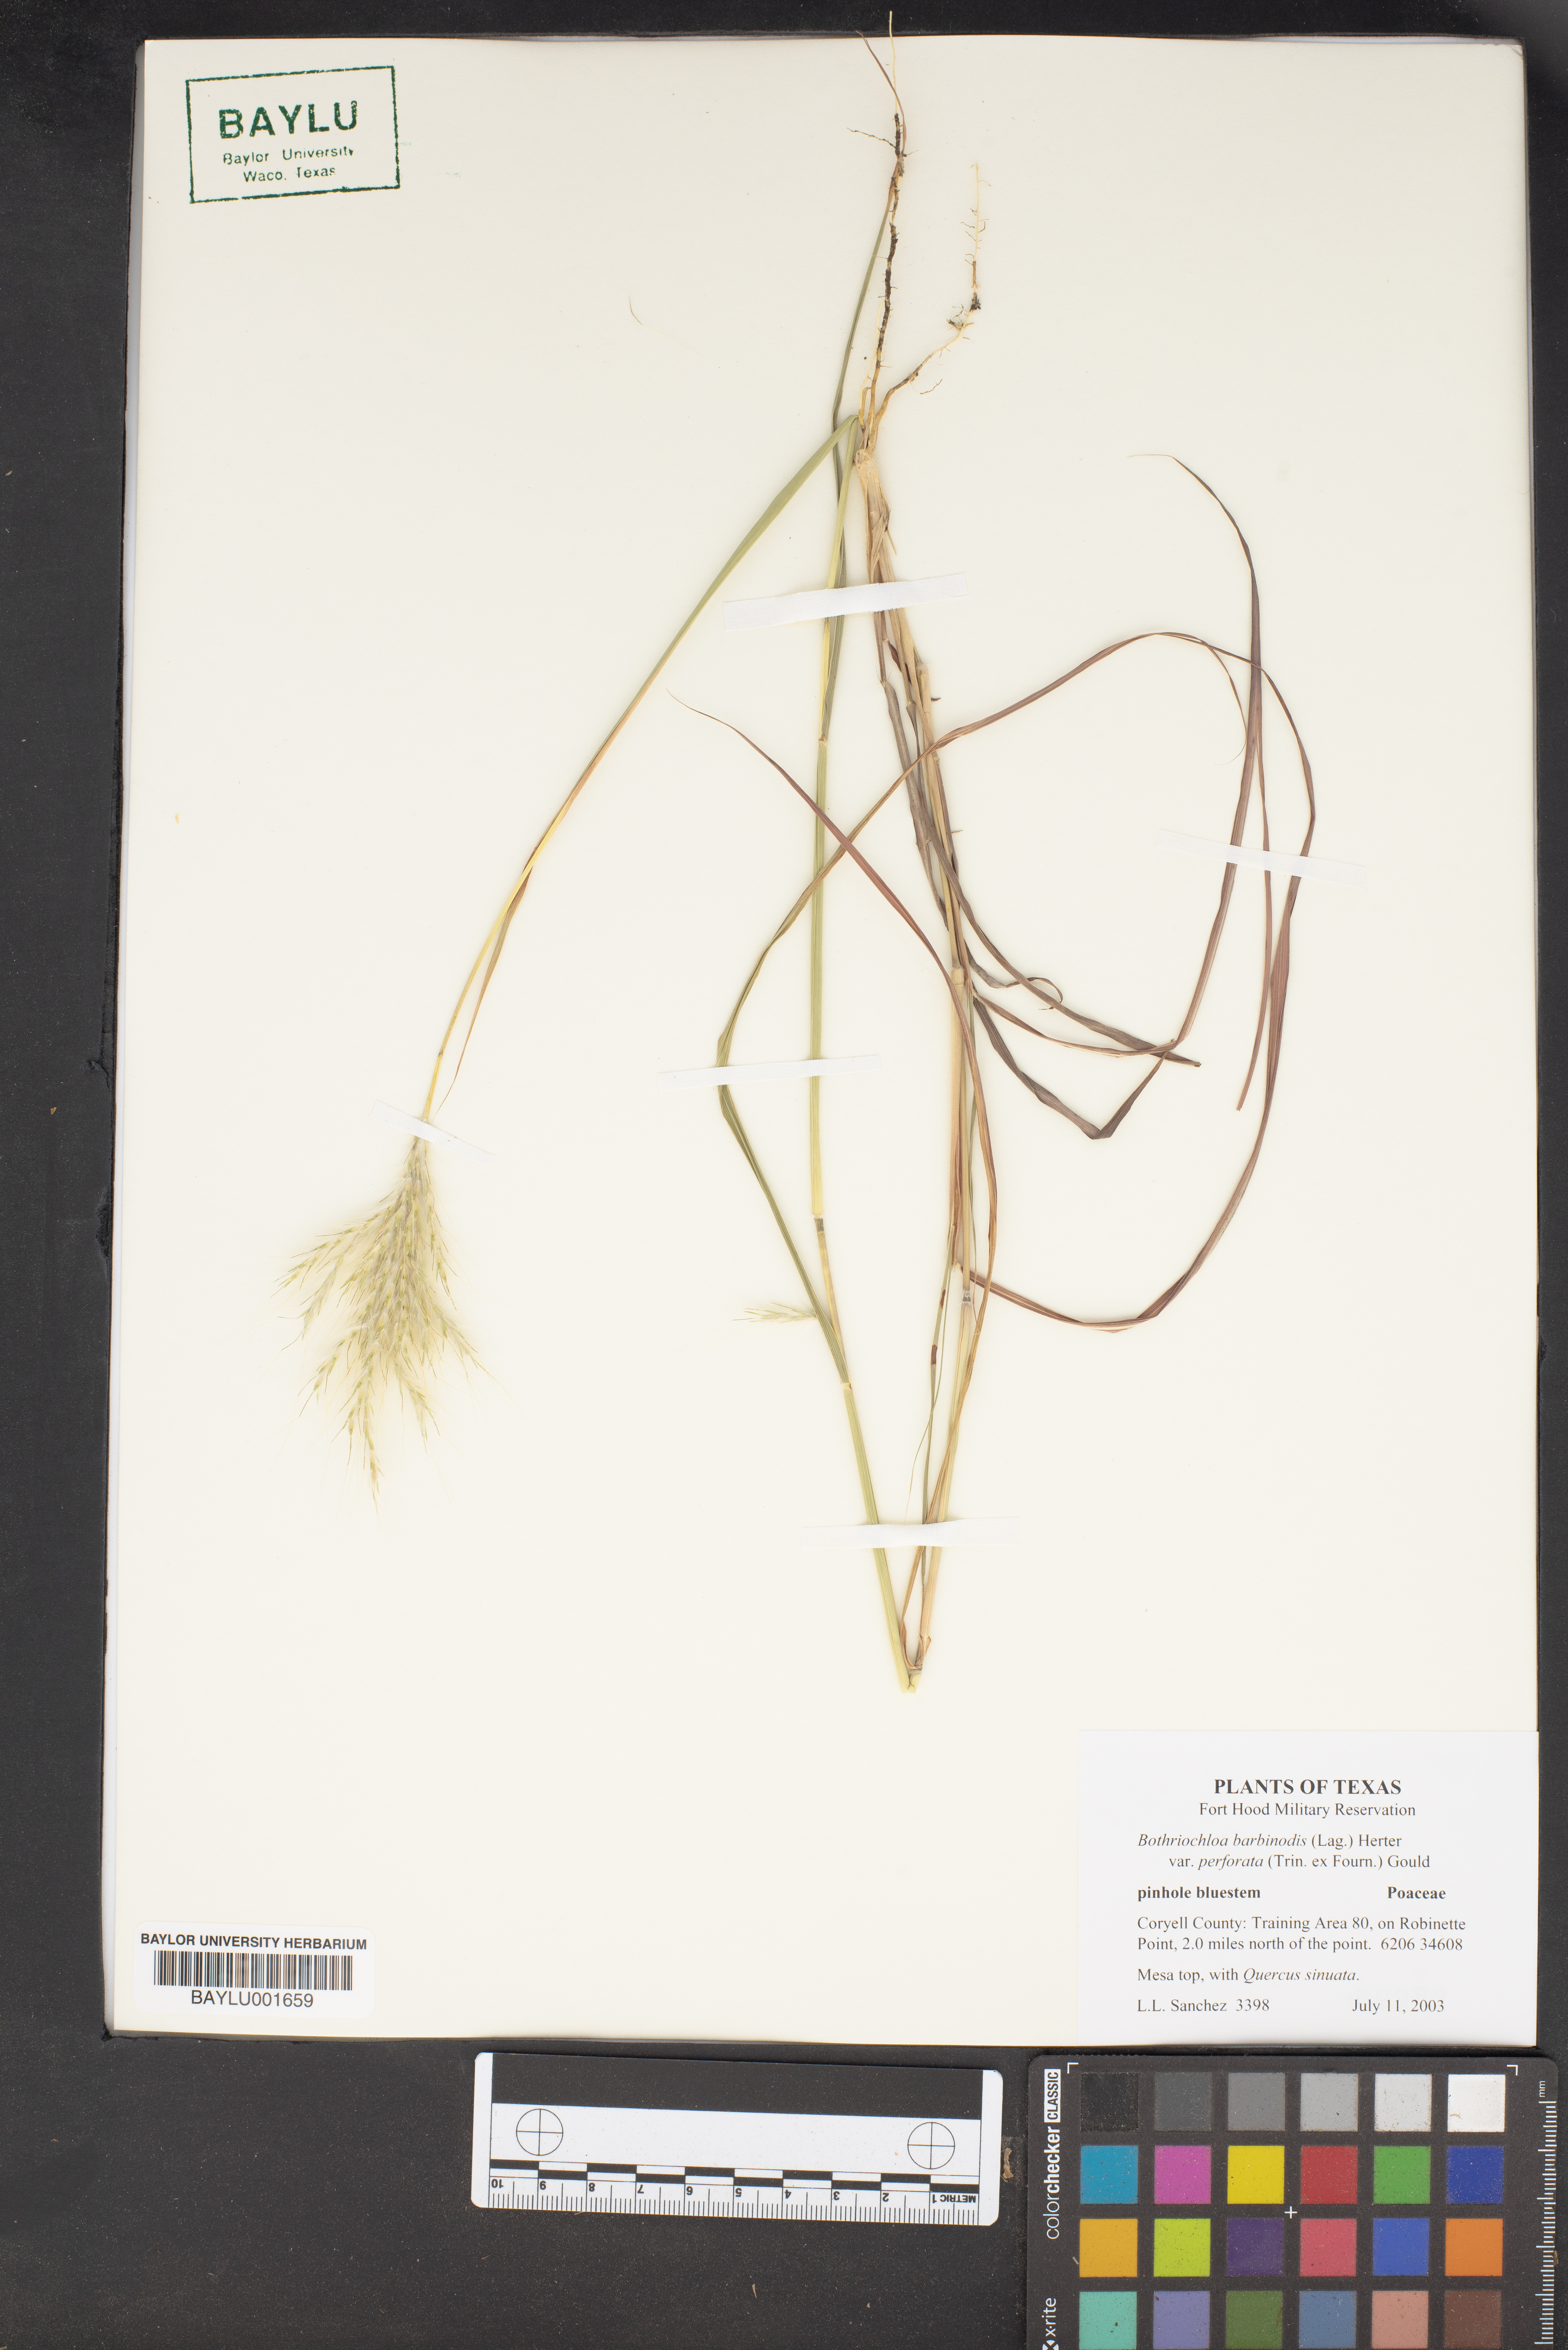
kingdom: Plantae
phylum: Tracheophyta
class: Liliopsida
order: Poales
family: Poaceae
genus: Bothriochloa
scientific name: Bothriochloa barbinodis
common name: Cane bluestem
